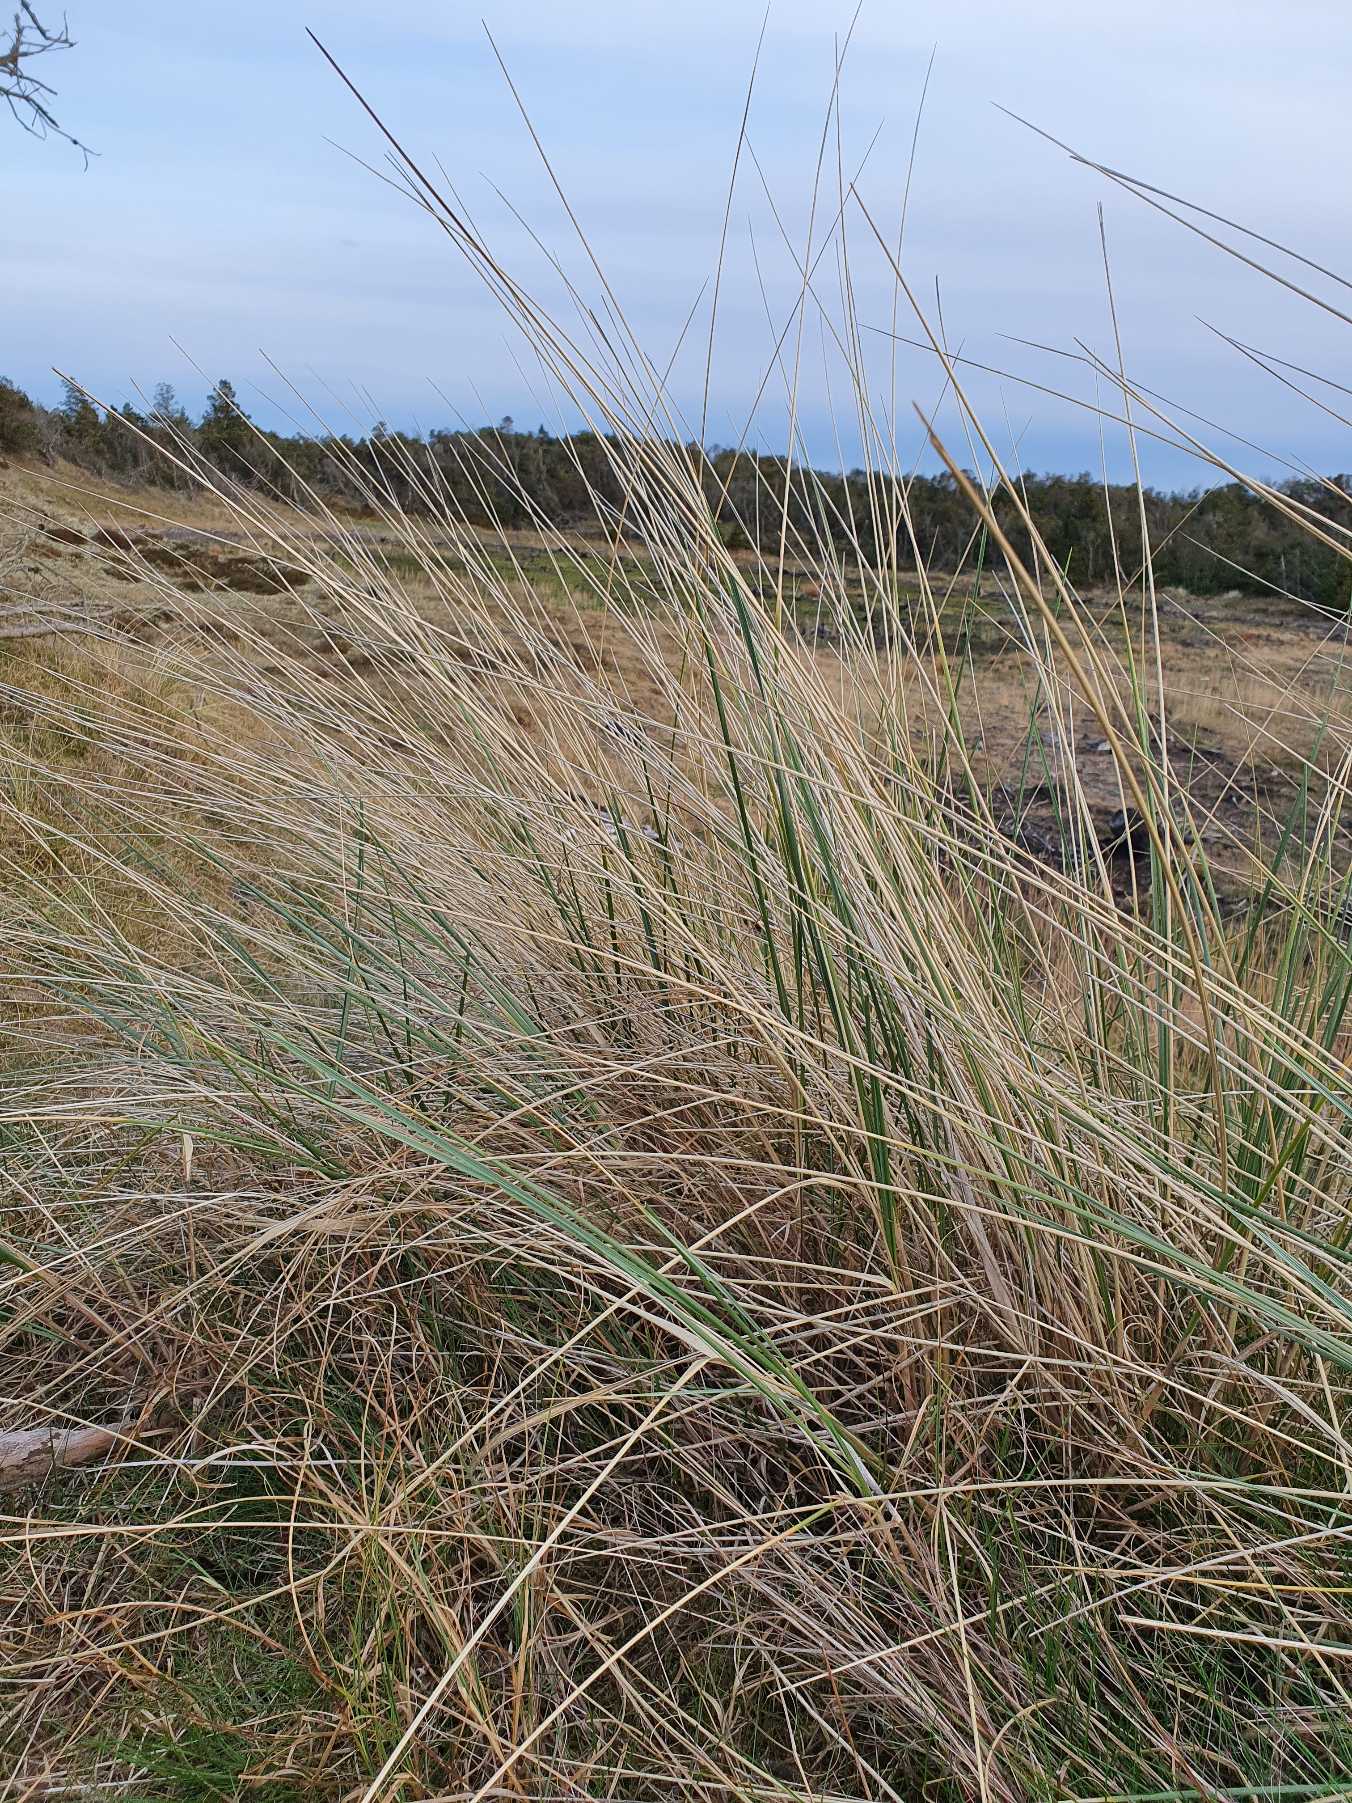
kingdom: Plantae
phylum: Tracheophyta
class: Liliopsida
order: Poales
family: Poaceae
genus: Calamagrostis
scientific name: Calamagrostis arenaria
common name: Sand-hjælme
